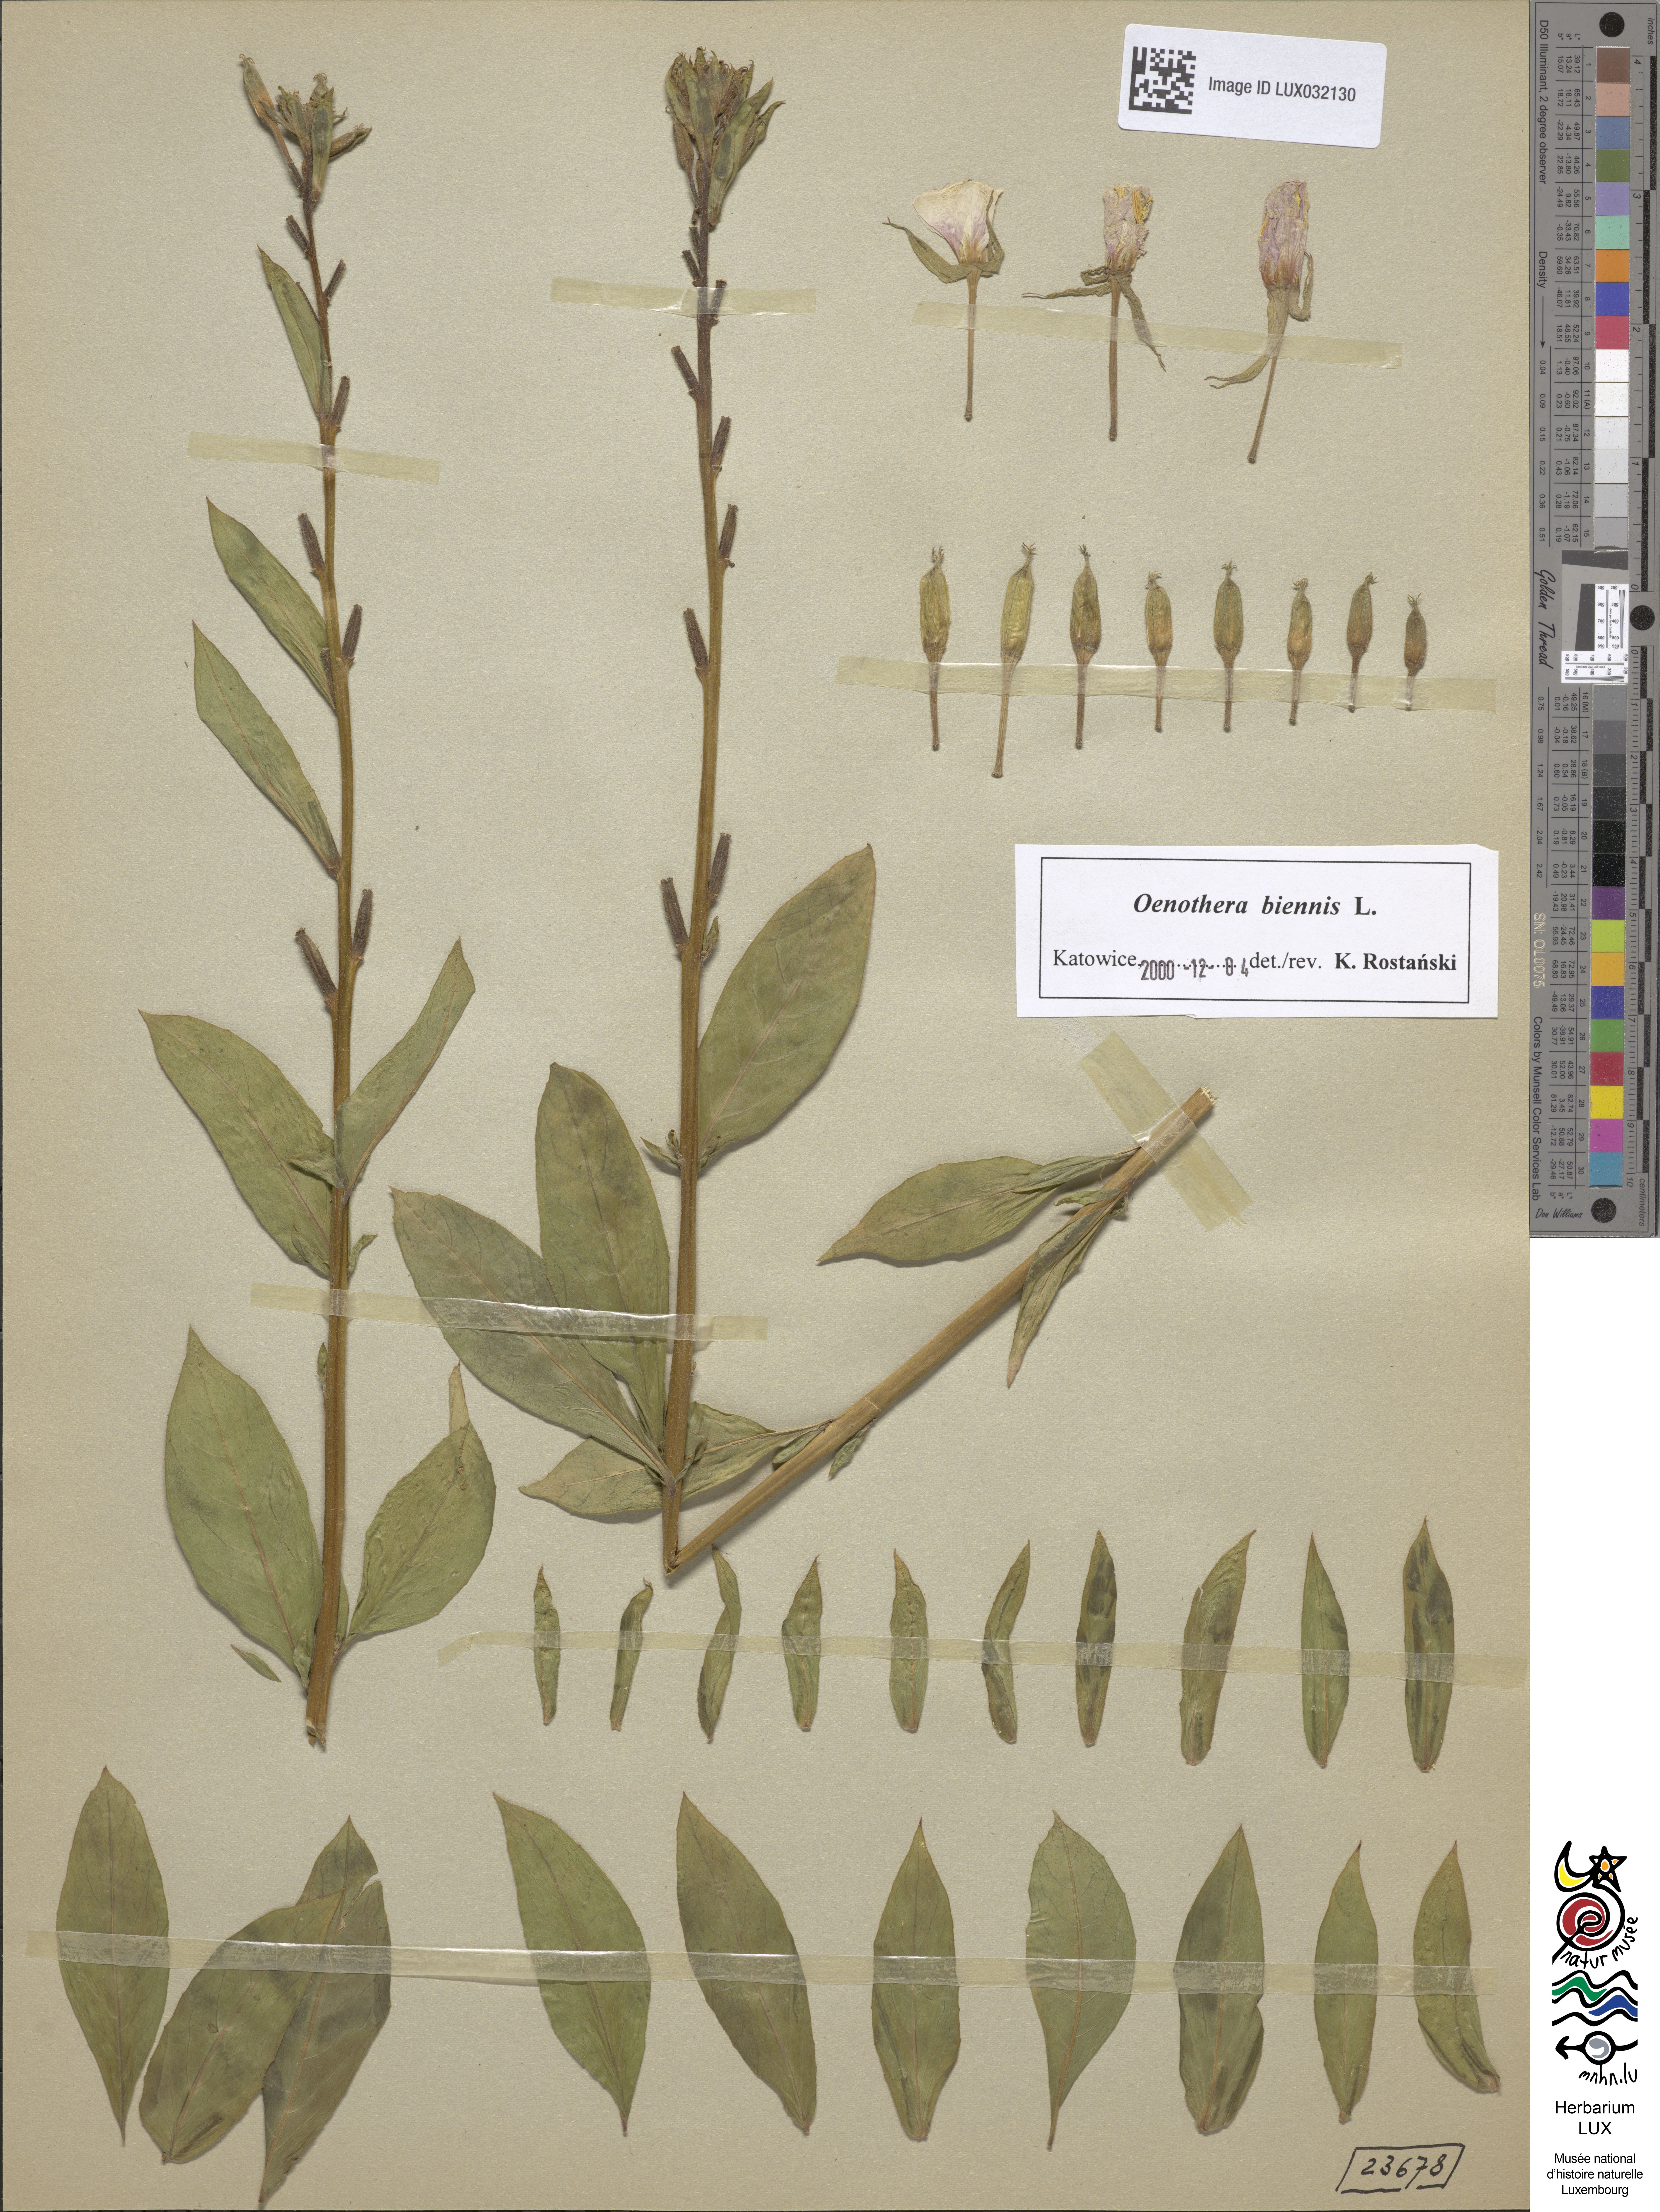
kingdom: Plantae
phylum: Tracheophyta
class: Magnoliopsida
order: Myrtales
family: Onagraceae
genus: Oenothera
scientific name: Oenothera biennis
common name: Common evening-primrose
